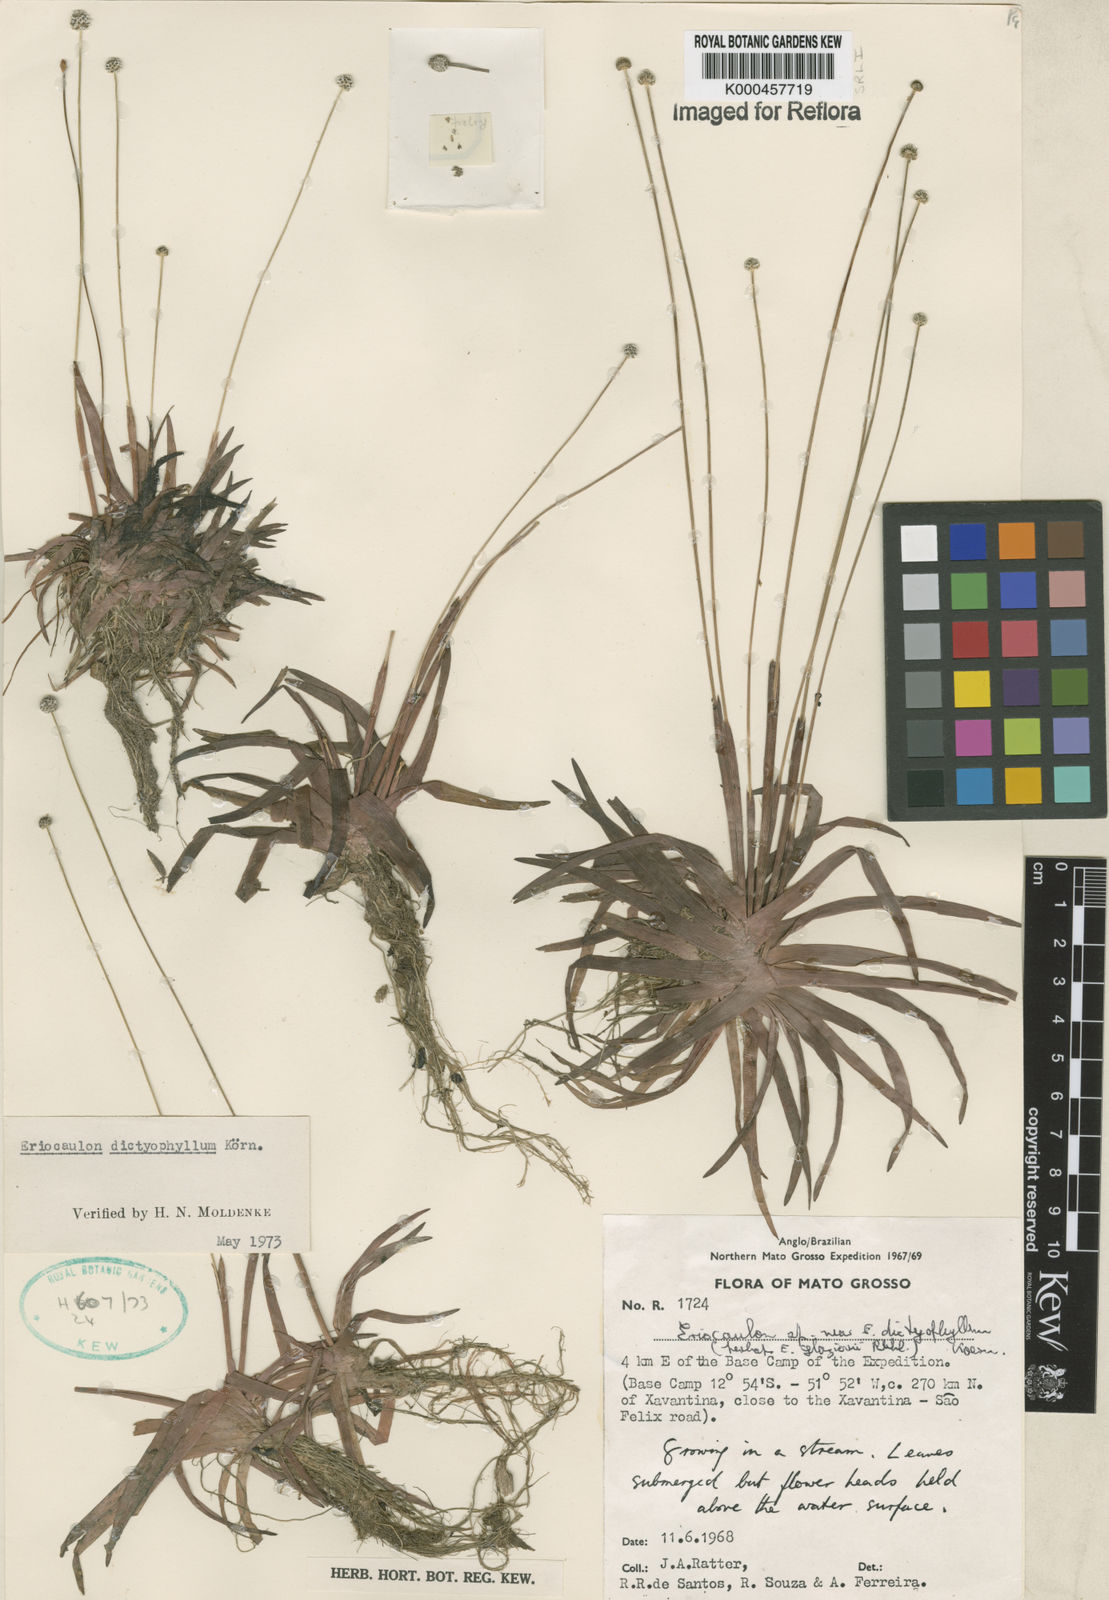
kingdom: Plantae
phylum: Tracheophyta
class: Liliopsida
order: Poales
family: Eriocaulaceae
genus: Eriocaulon
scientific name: Eriocaulon
